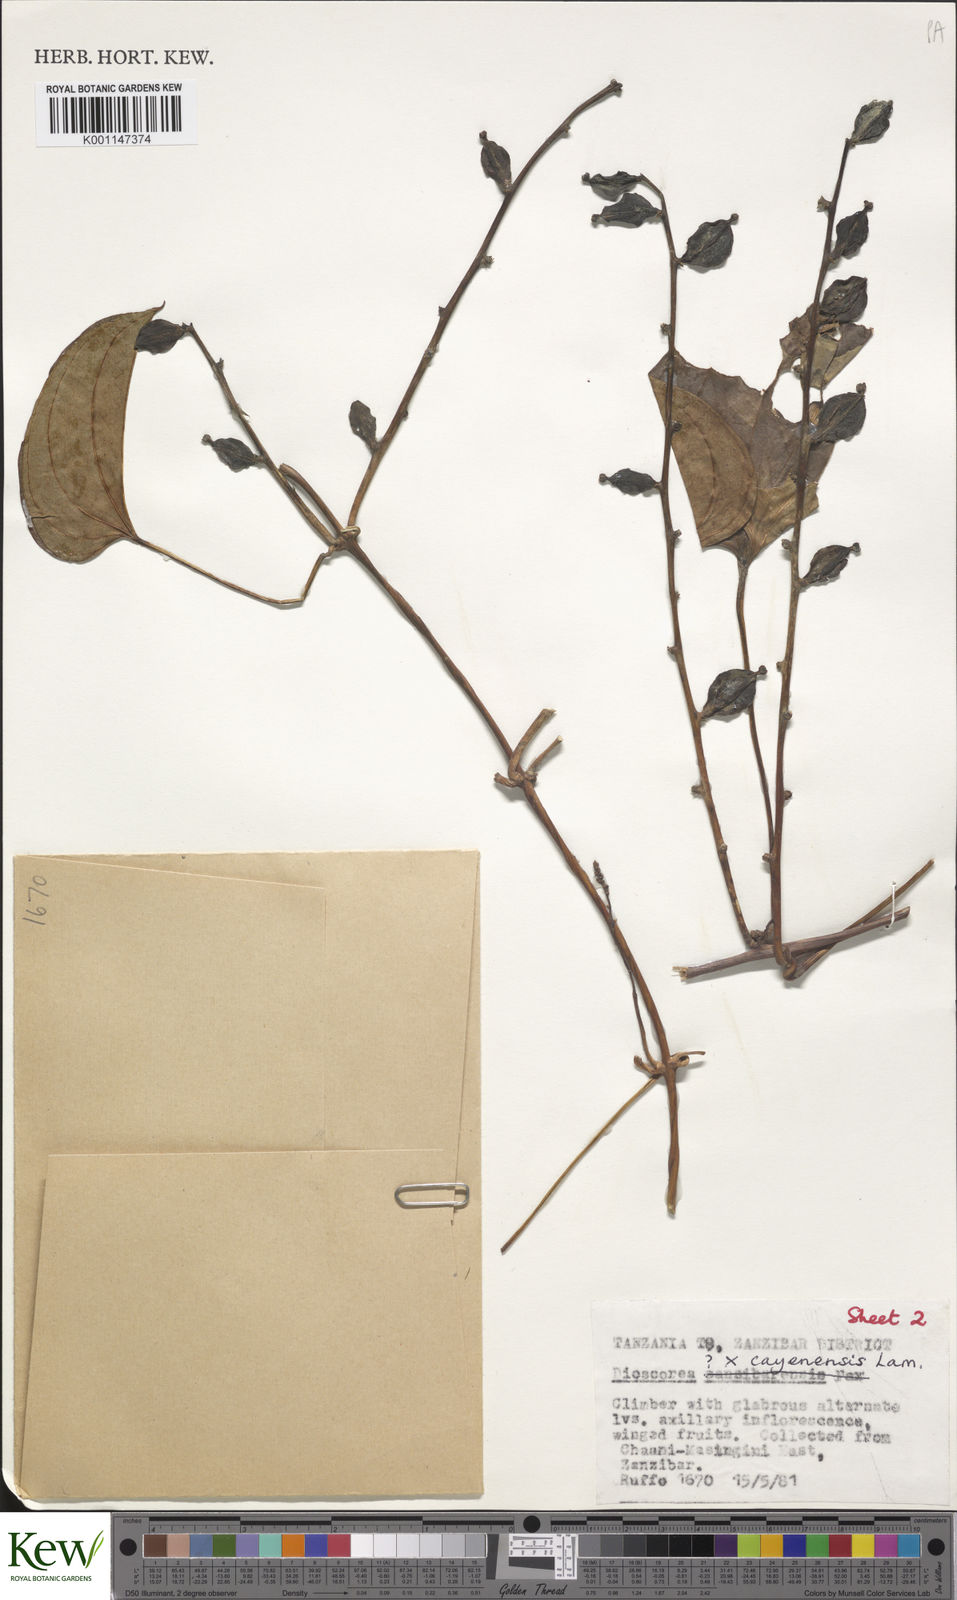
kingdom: Plantae
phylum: Tracheophyta
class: Liliopsida
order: Dioscoreales
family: Dioscoreaceae
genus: Dioscorea
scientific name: Dioscorea cayenensis
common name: Attoto yam
